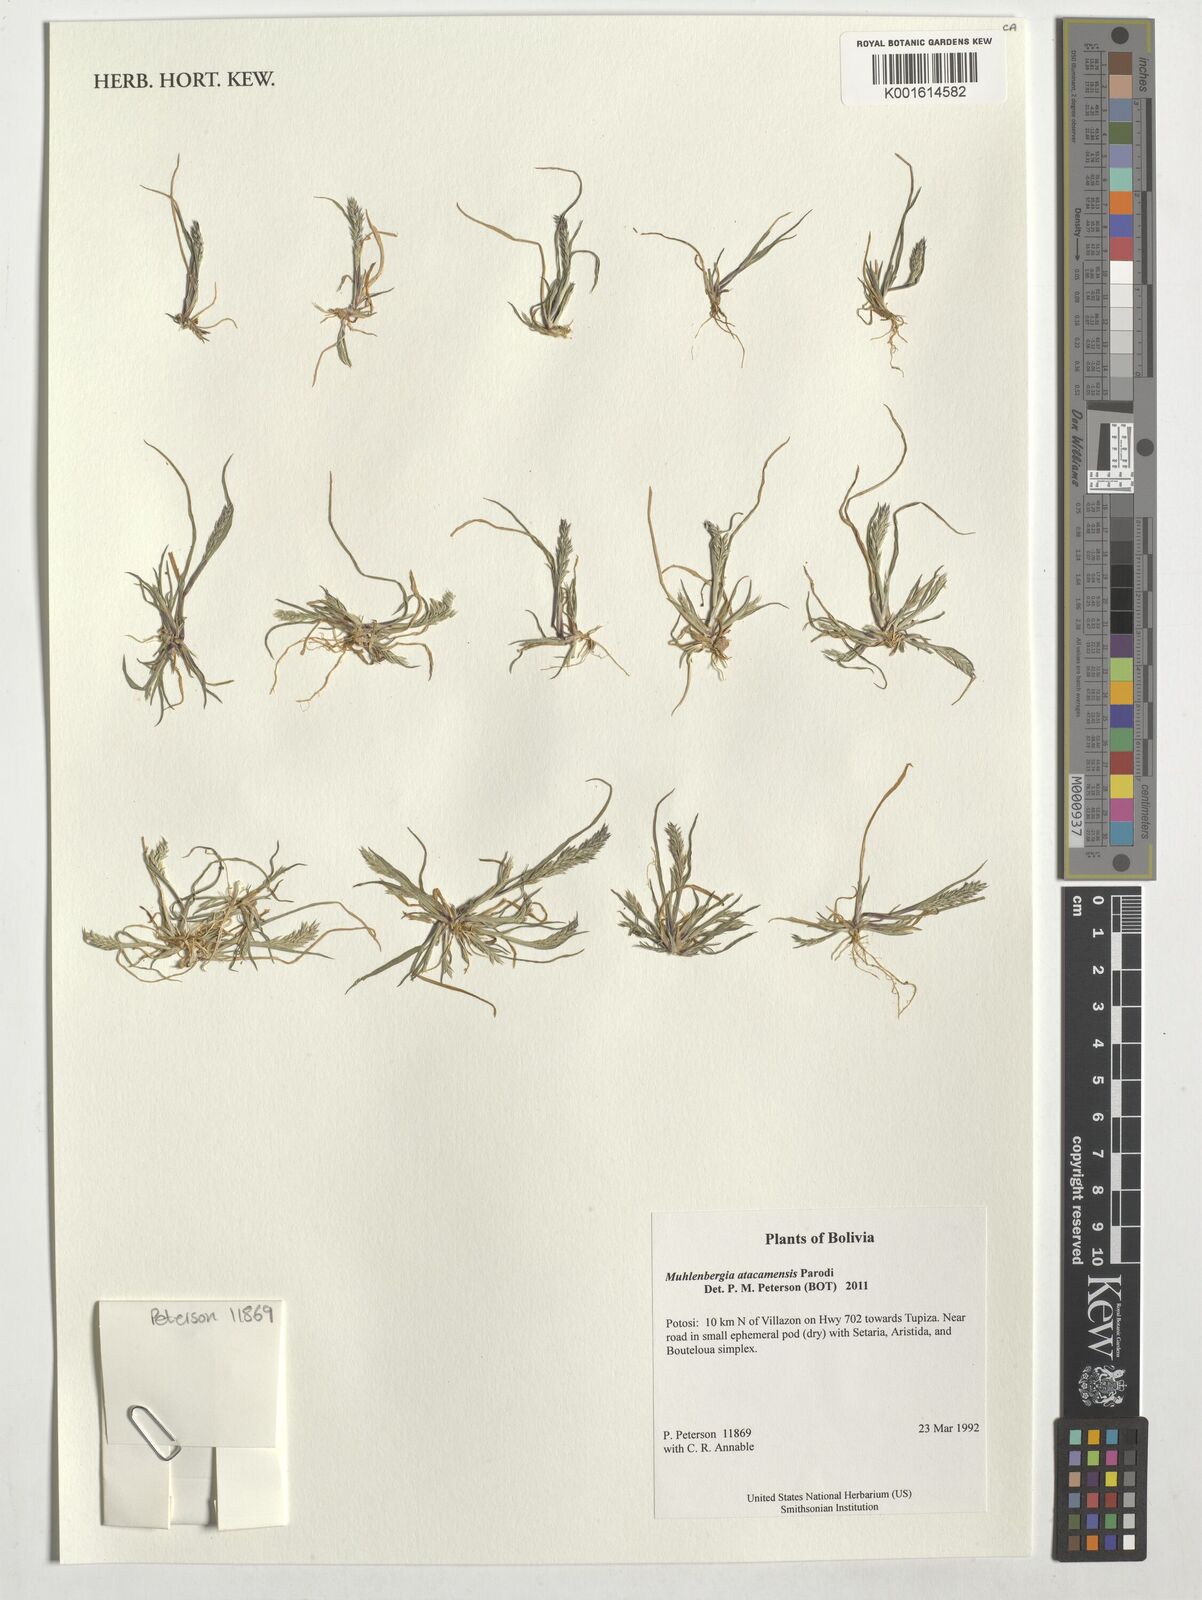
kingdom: Plantae
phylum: Tracheophyta
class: Liliopsida
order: Poales
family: Poaceae
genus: Muhlenbergia
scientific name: Muhlenbergia atacamensis
